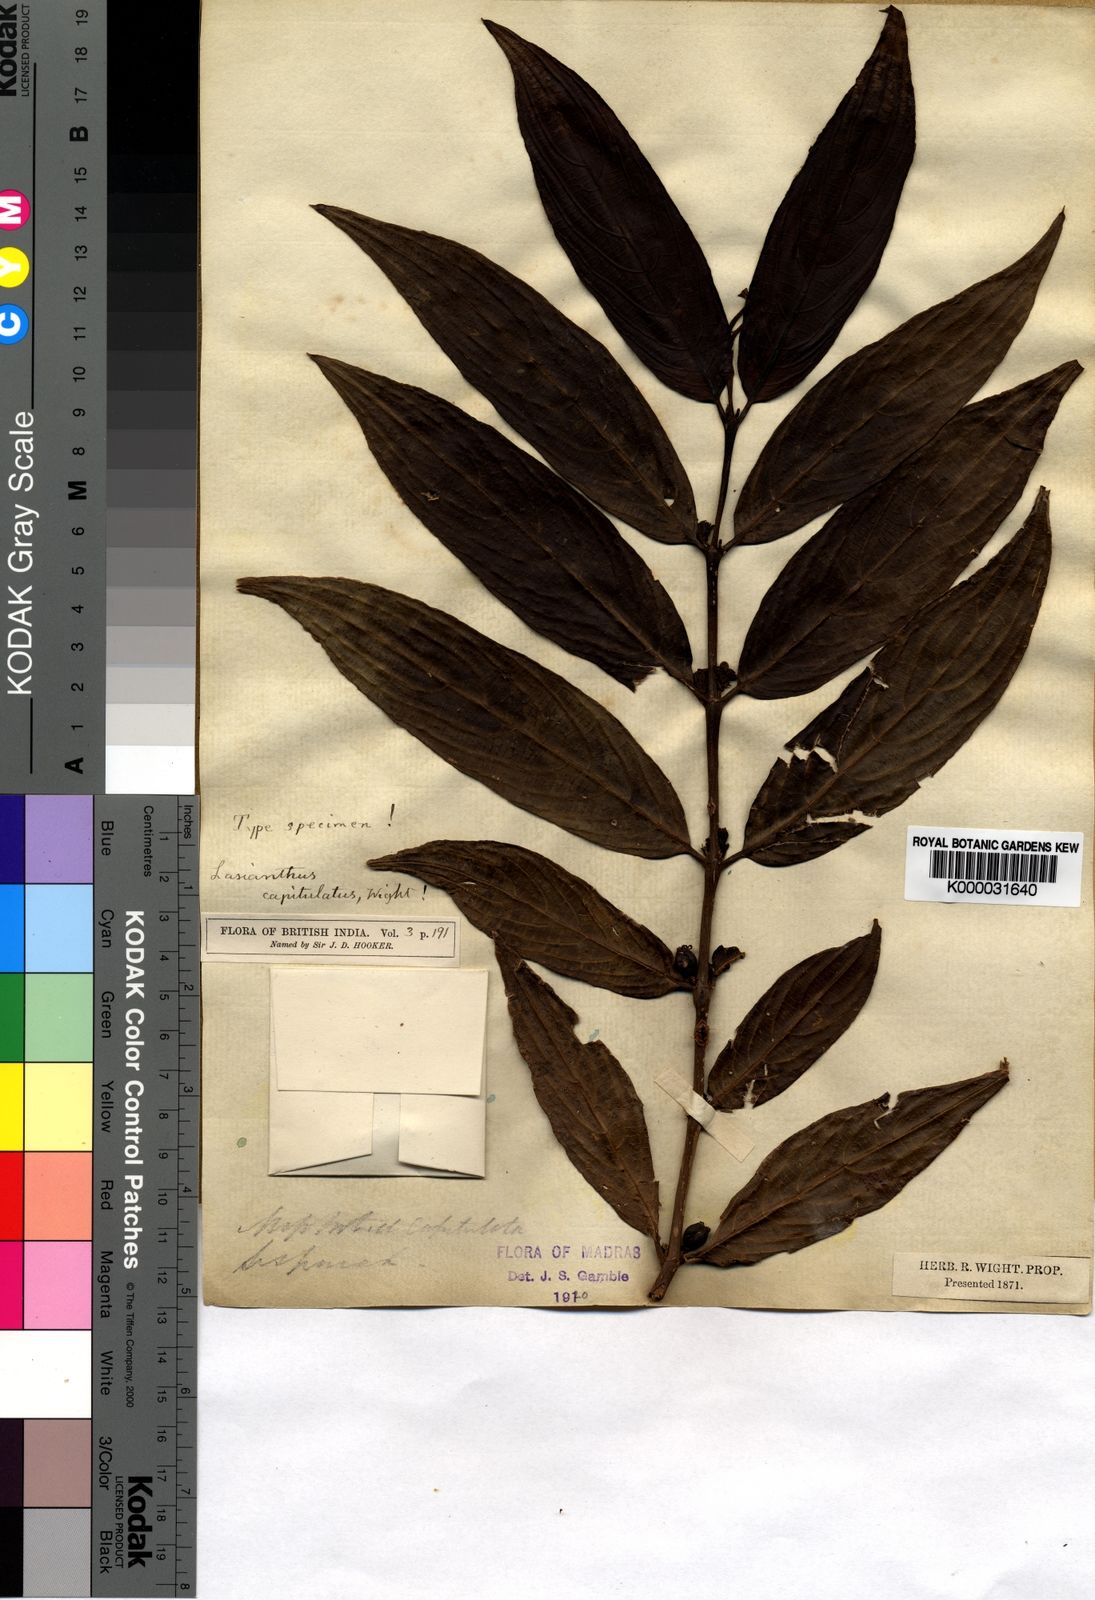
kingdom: Plantae
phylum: Tracheophyta
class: Magnoliopsida
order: Gentianales
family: Rubiaceae
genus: Lasianthus
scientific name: Lasianthus capitulatus
